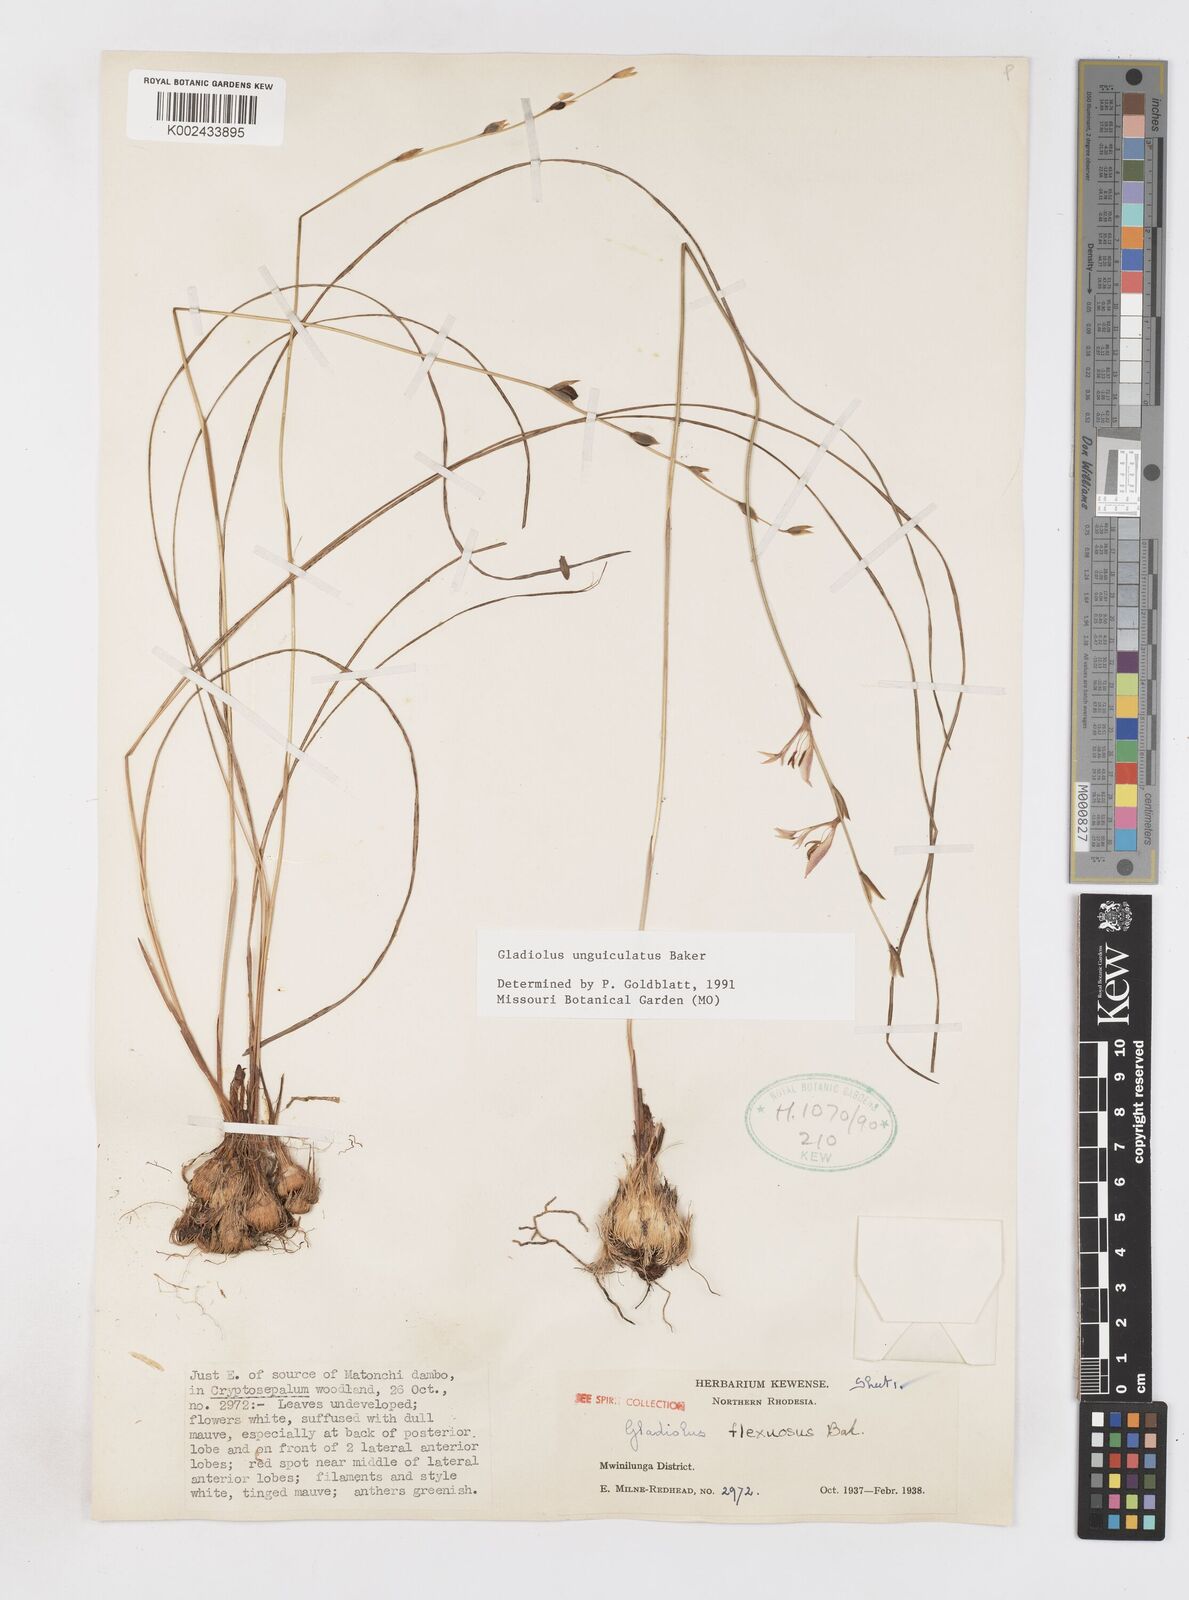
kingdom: Plantae
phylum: Tracheophyta
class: Liliopsida
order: Asparagales
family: Iridaceae
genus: Gladiolus
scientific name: Gladiolus unguiculatus
